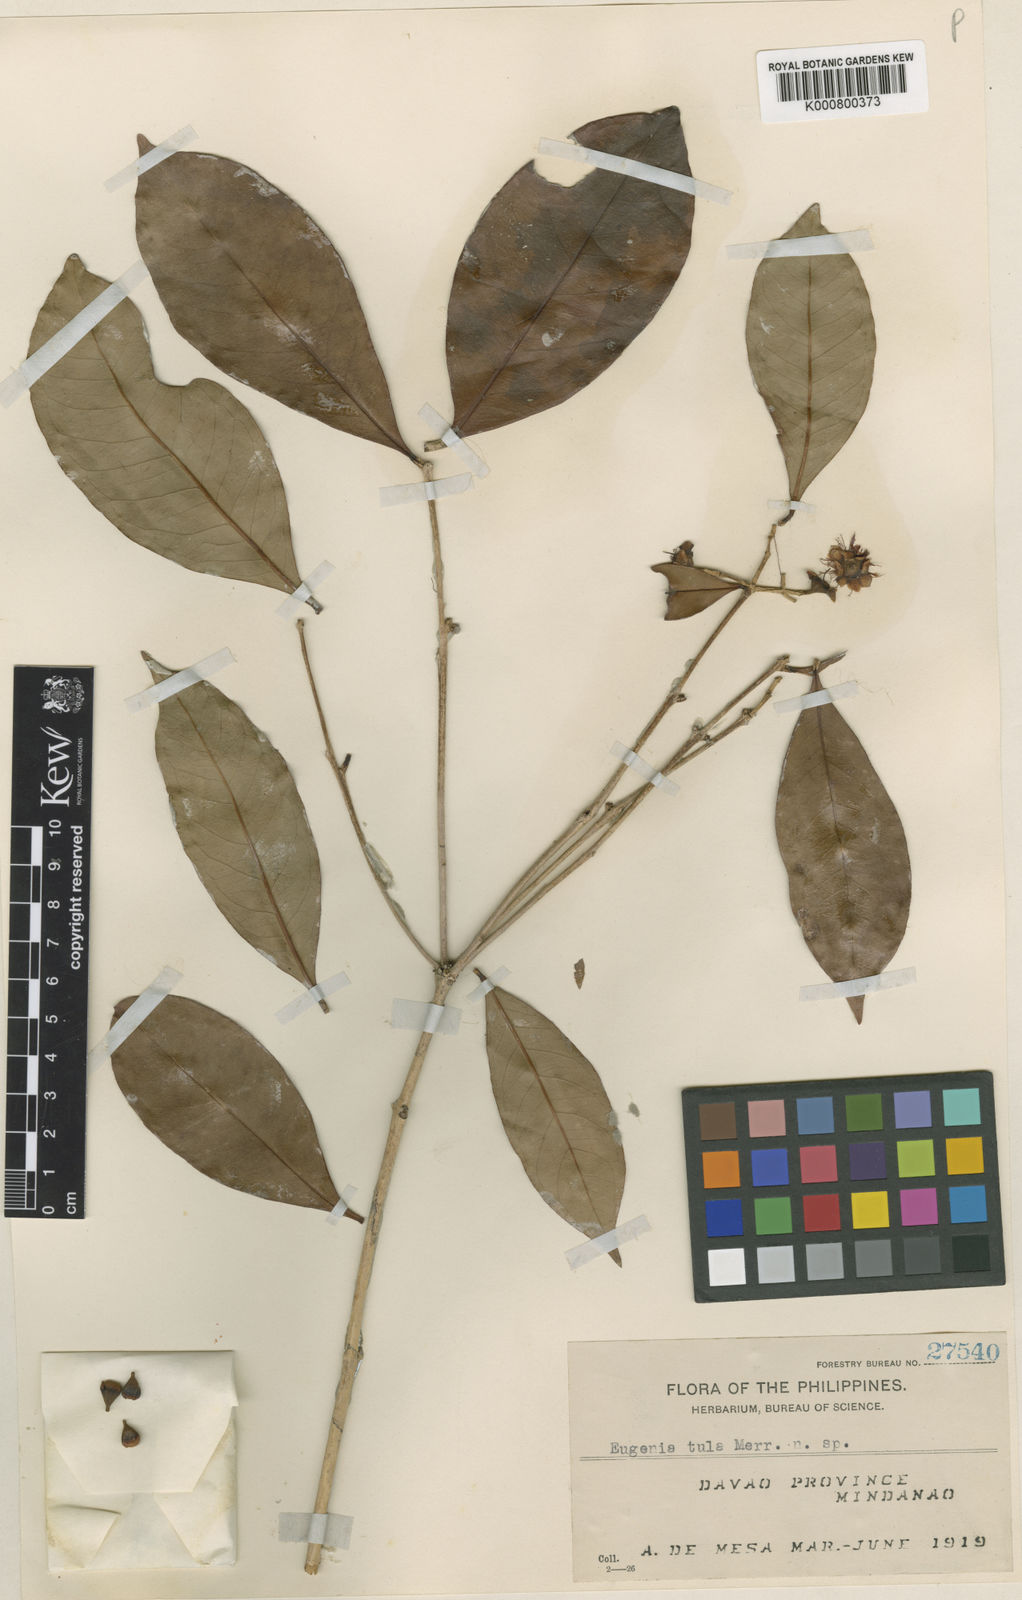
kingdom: Plantae
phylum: Tracheophyta
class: Magnoliopsida
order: Myrtales
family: Myrtaceae
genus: Syzygium
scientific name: Syzygium tula
